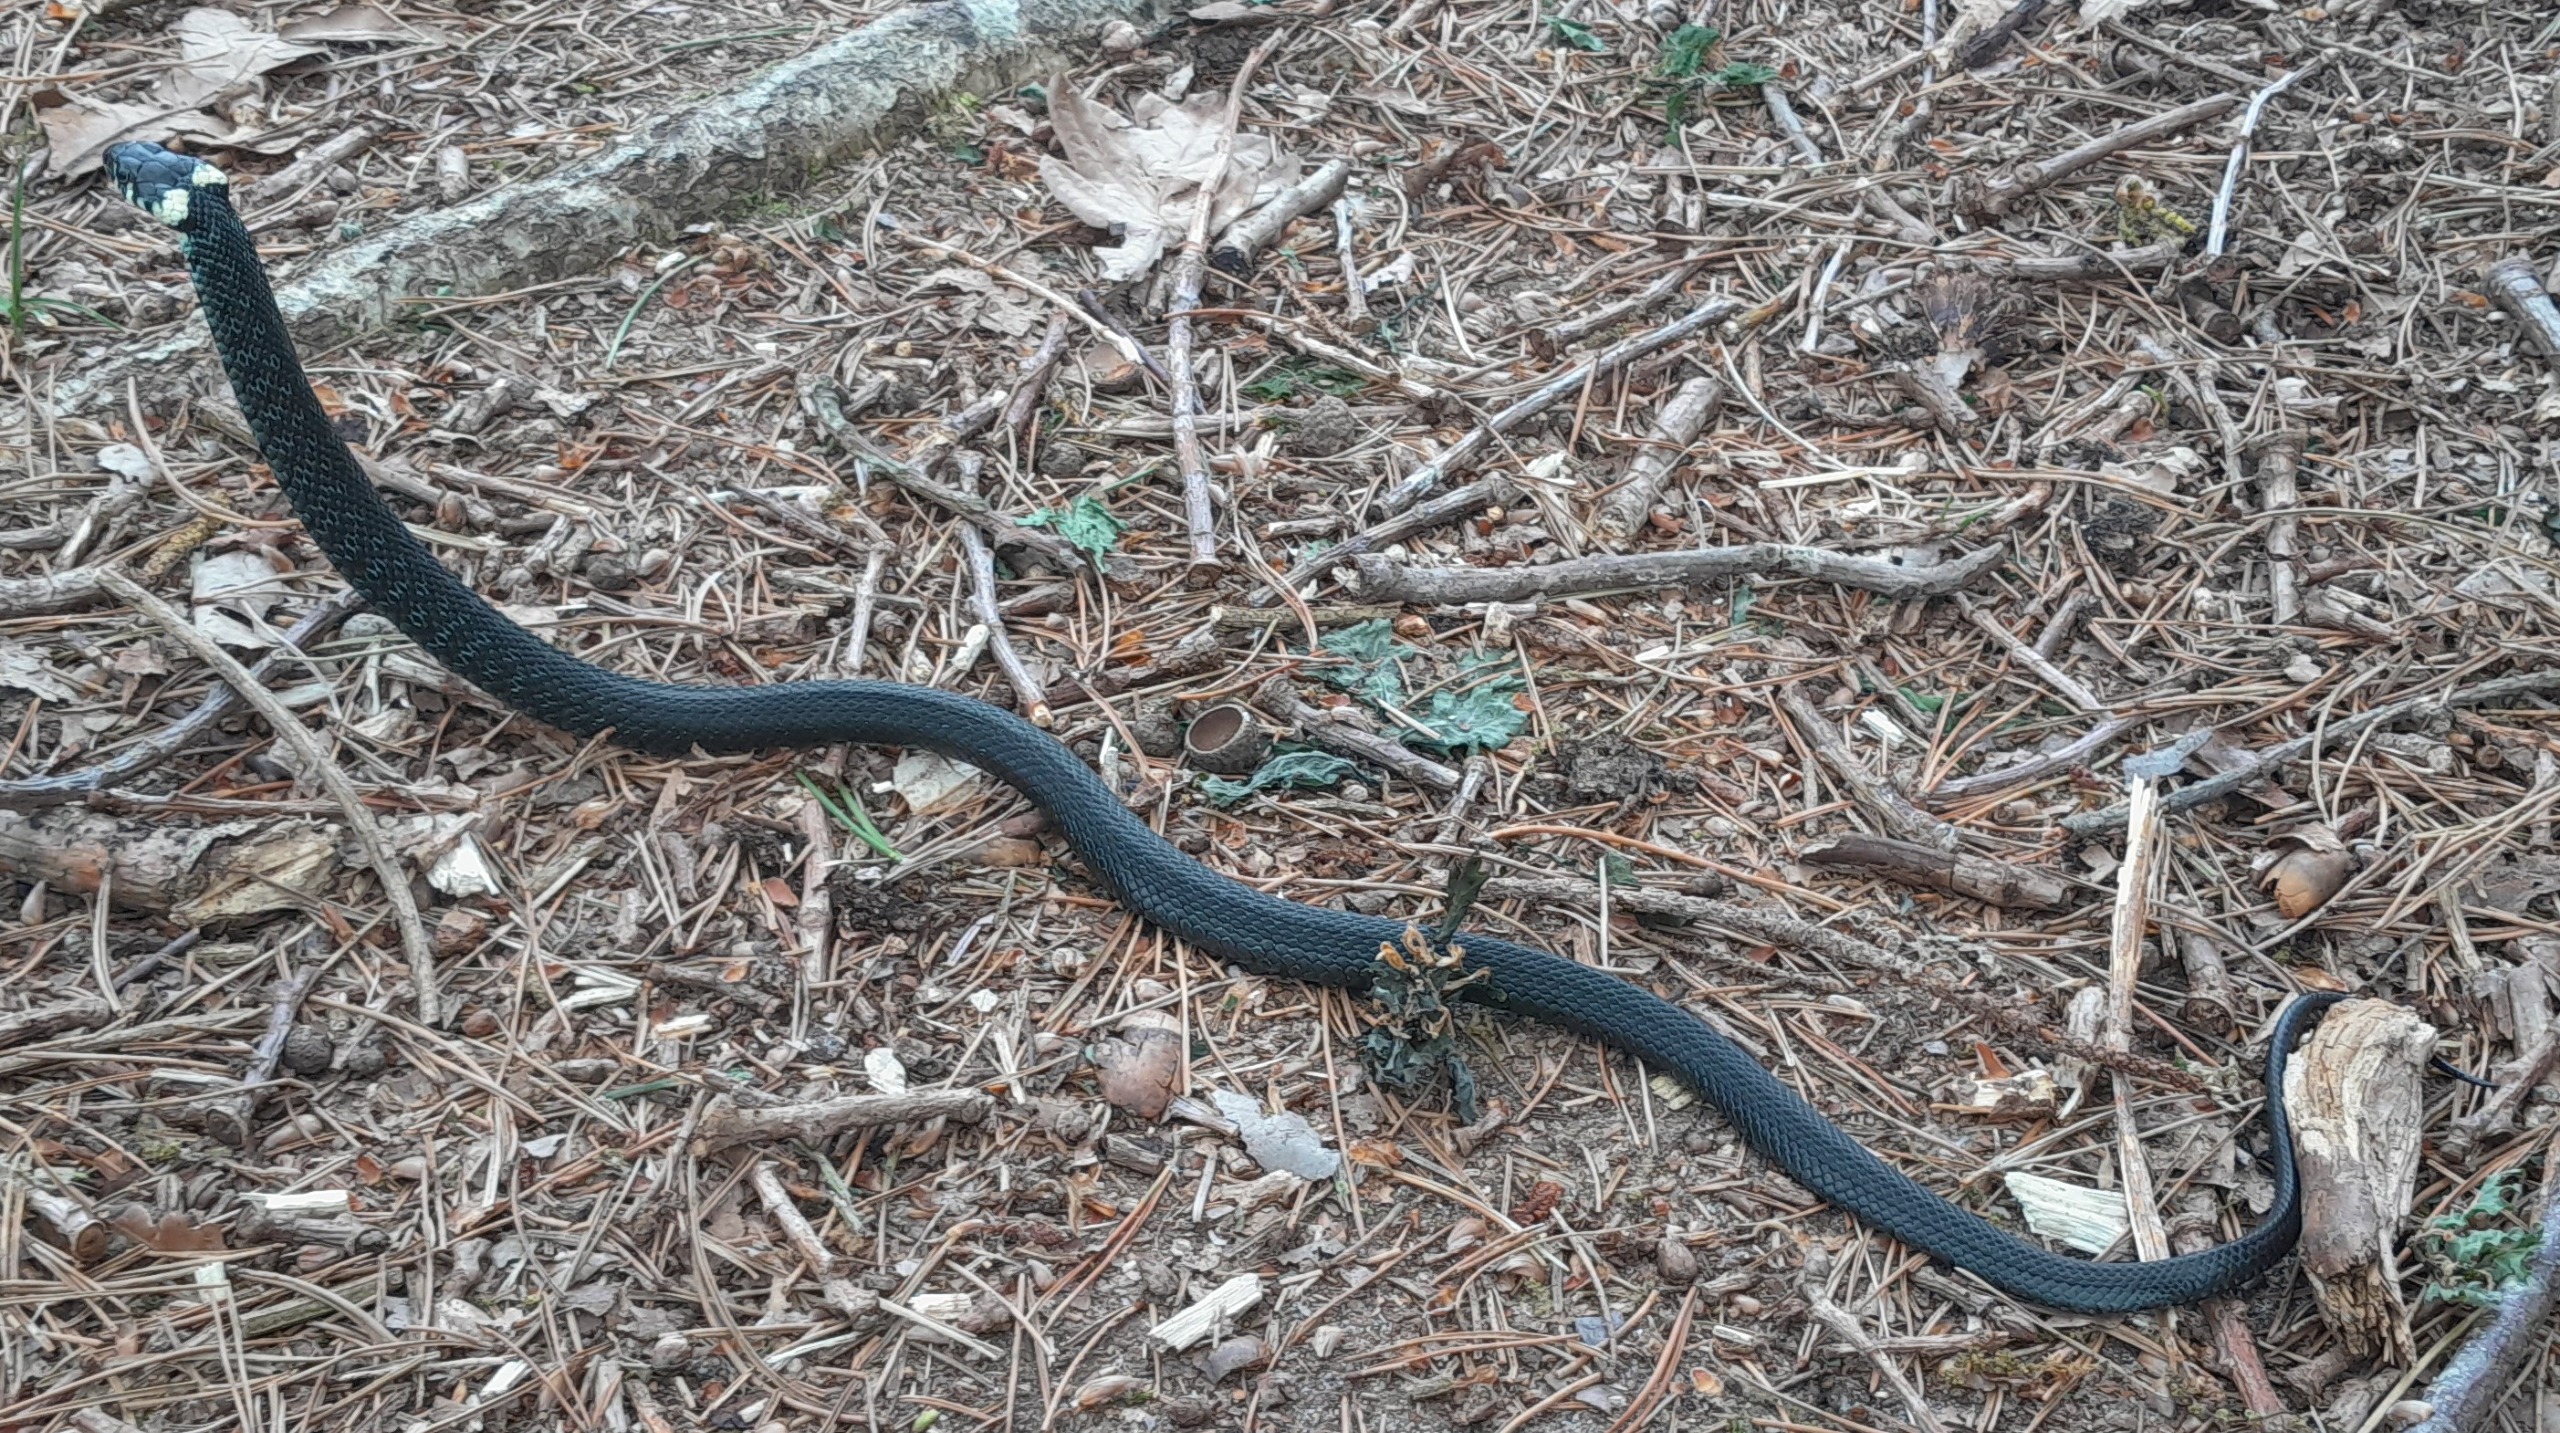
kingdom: Animalia
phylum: Chordata
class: Squamata
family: Colubridae
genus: Natrix
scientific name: Natrix natrix
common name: Snog
